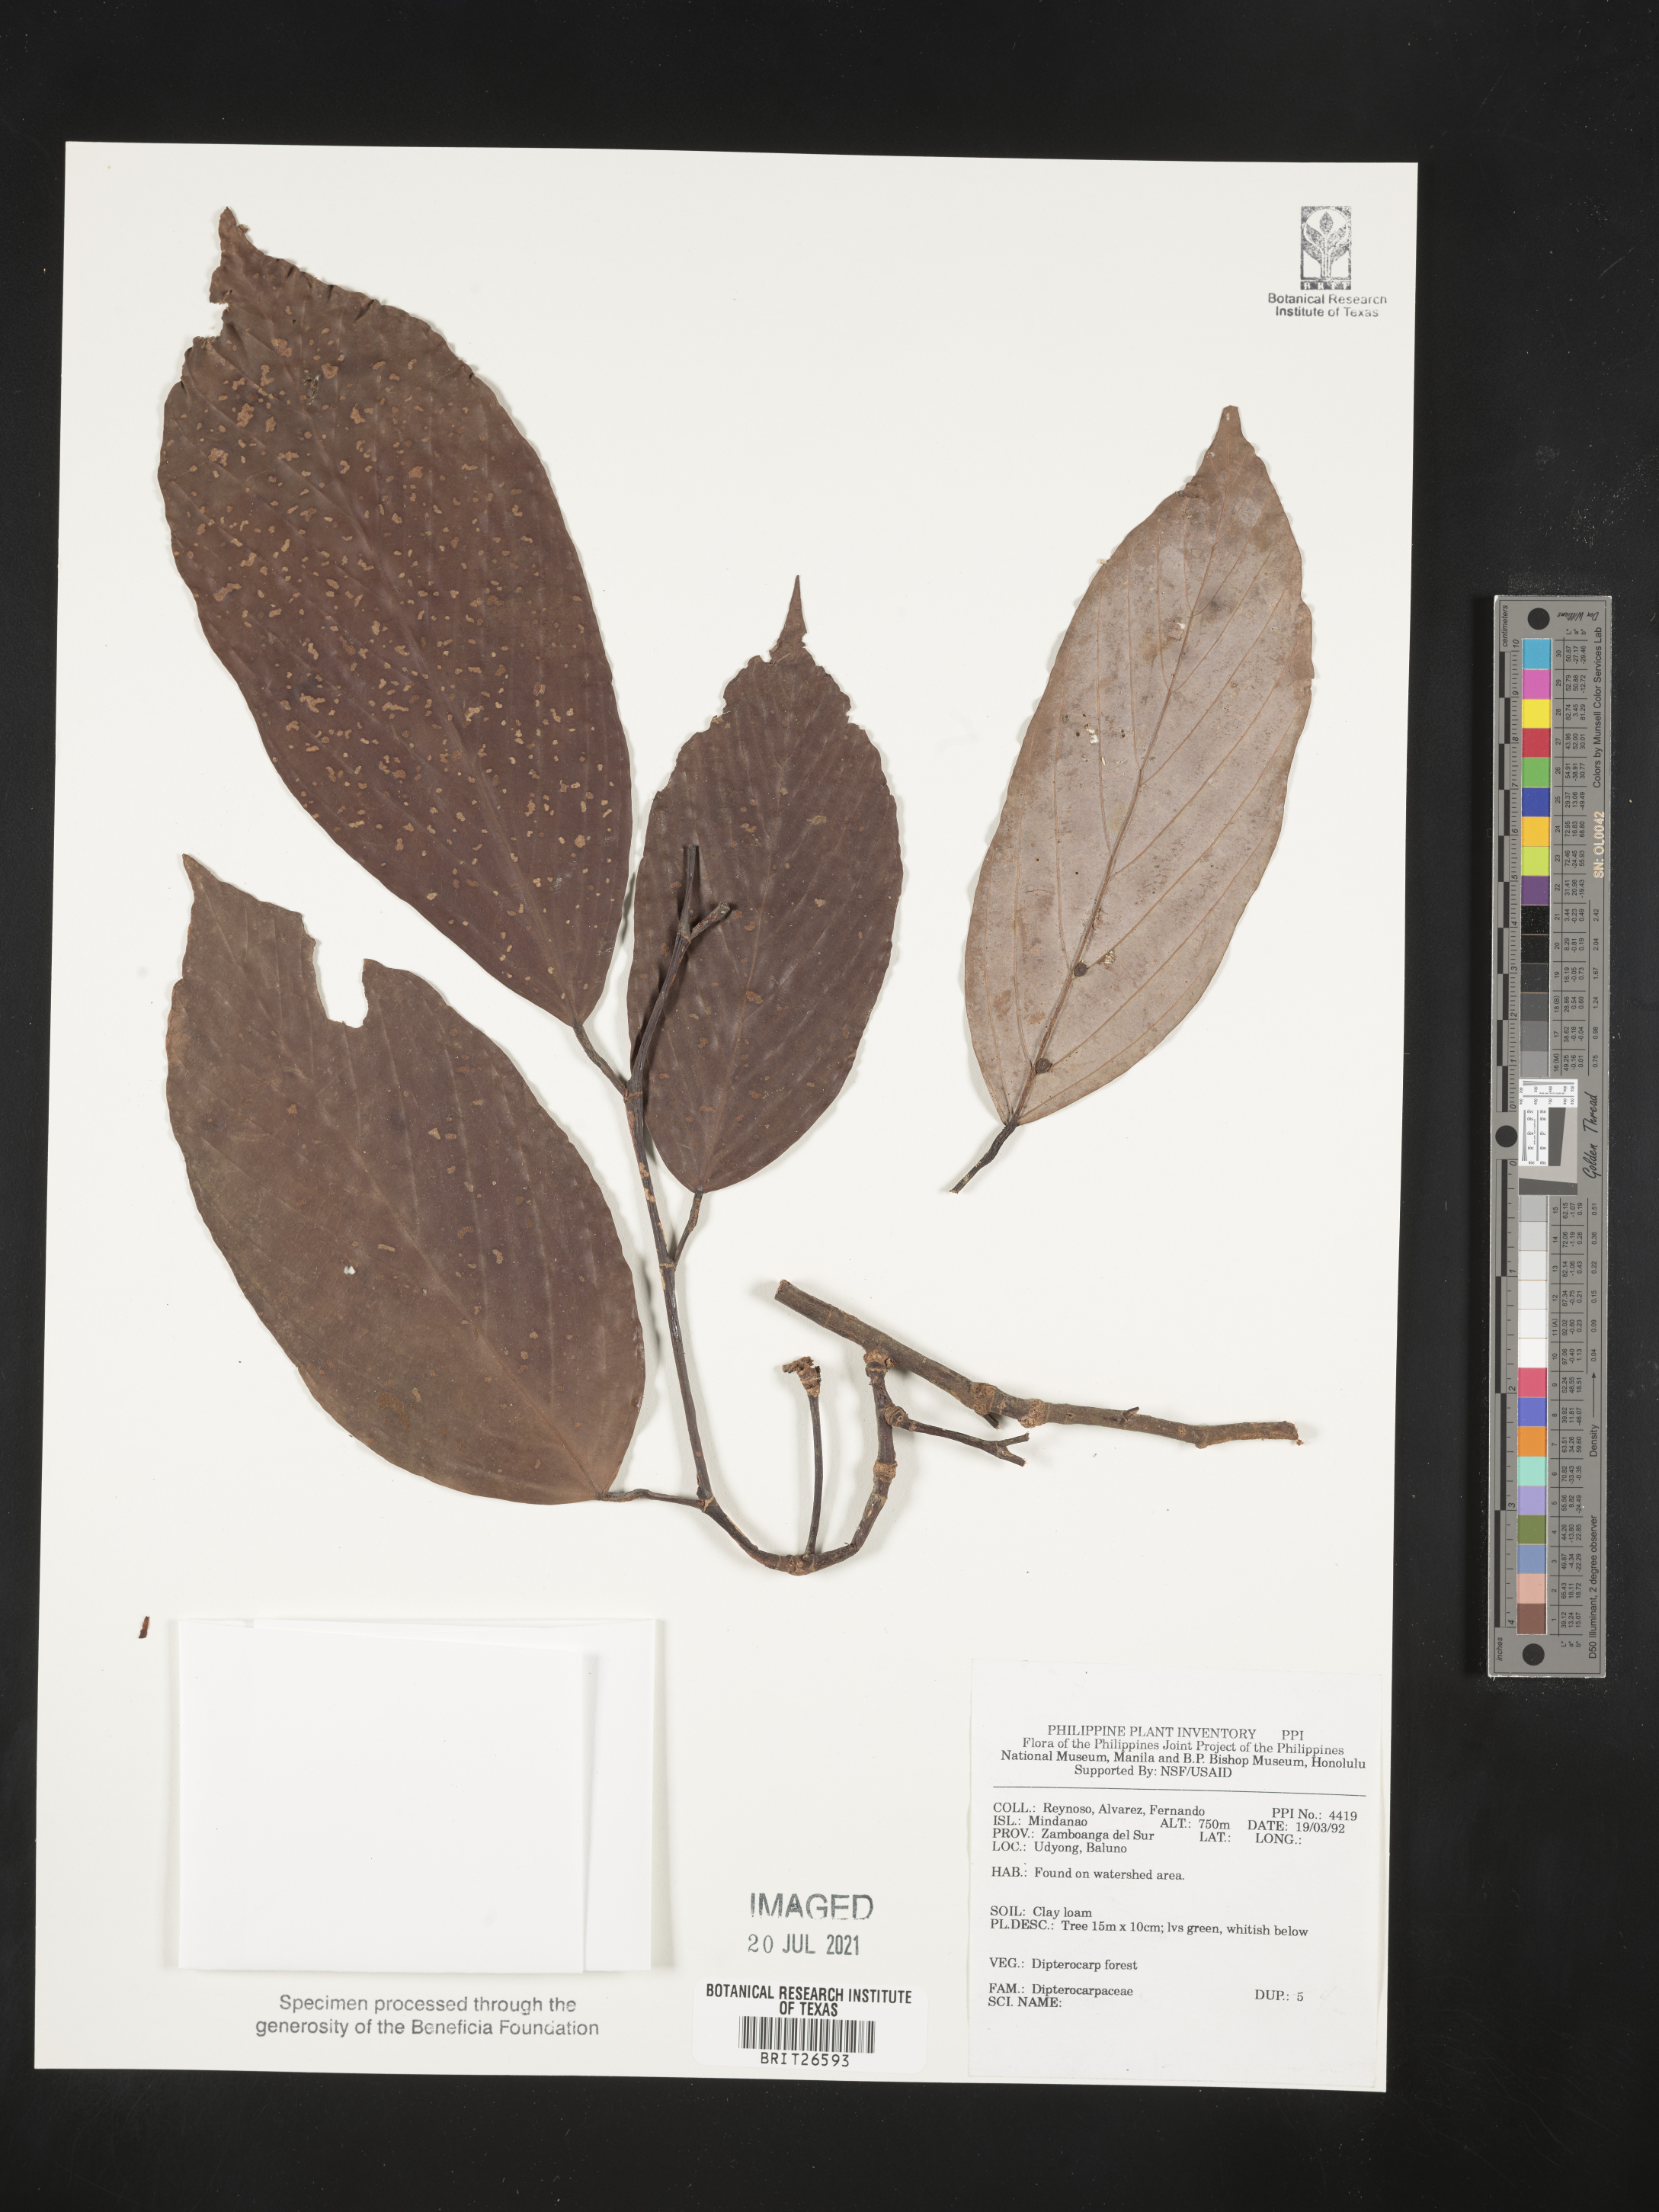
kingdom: Plantae
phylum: Tracheophyta
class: Magnoliopsida
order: Malvales
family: Dipterocarpaceae
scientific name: Dipterocarpaceae
